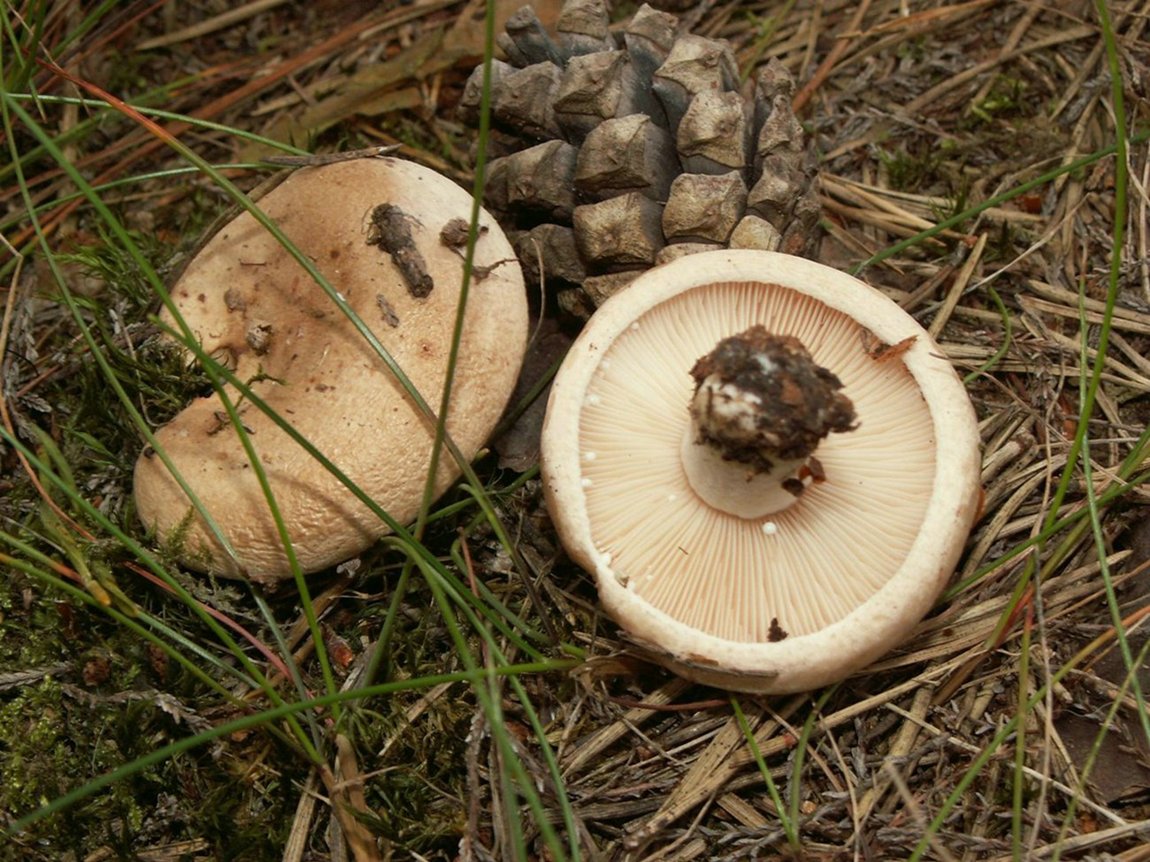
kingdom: Fungi
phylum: Basidiomycota
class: Agaricomycetes
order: Russulales
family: Russulaceae
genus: Lactarius
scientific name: Lactarius musteus
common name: elfenbens-mælkehat
